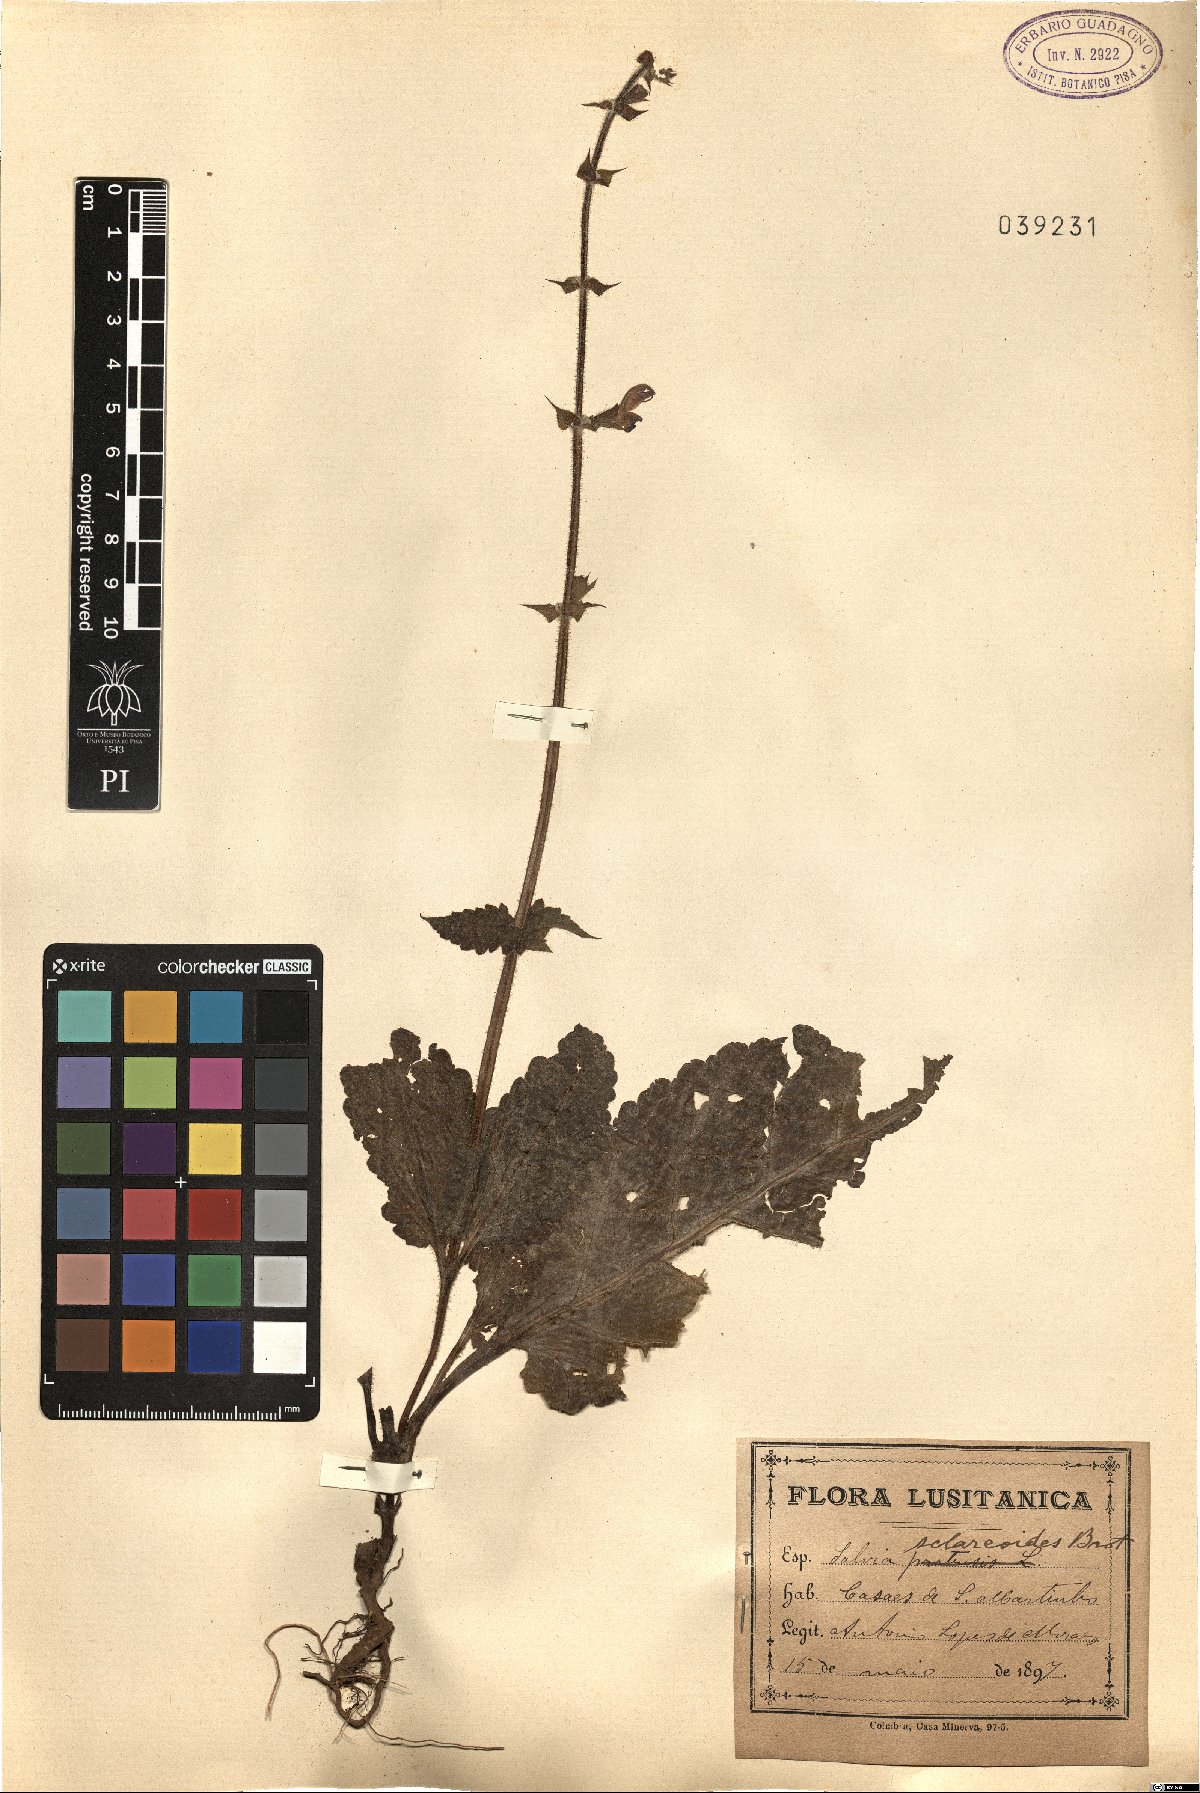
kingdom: Plantae
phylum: Tracheophyta
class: Magnoliopsida
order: Lamiales
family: Lamiaceae
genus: Salvia
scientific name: Salvia sclareoides
